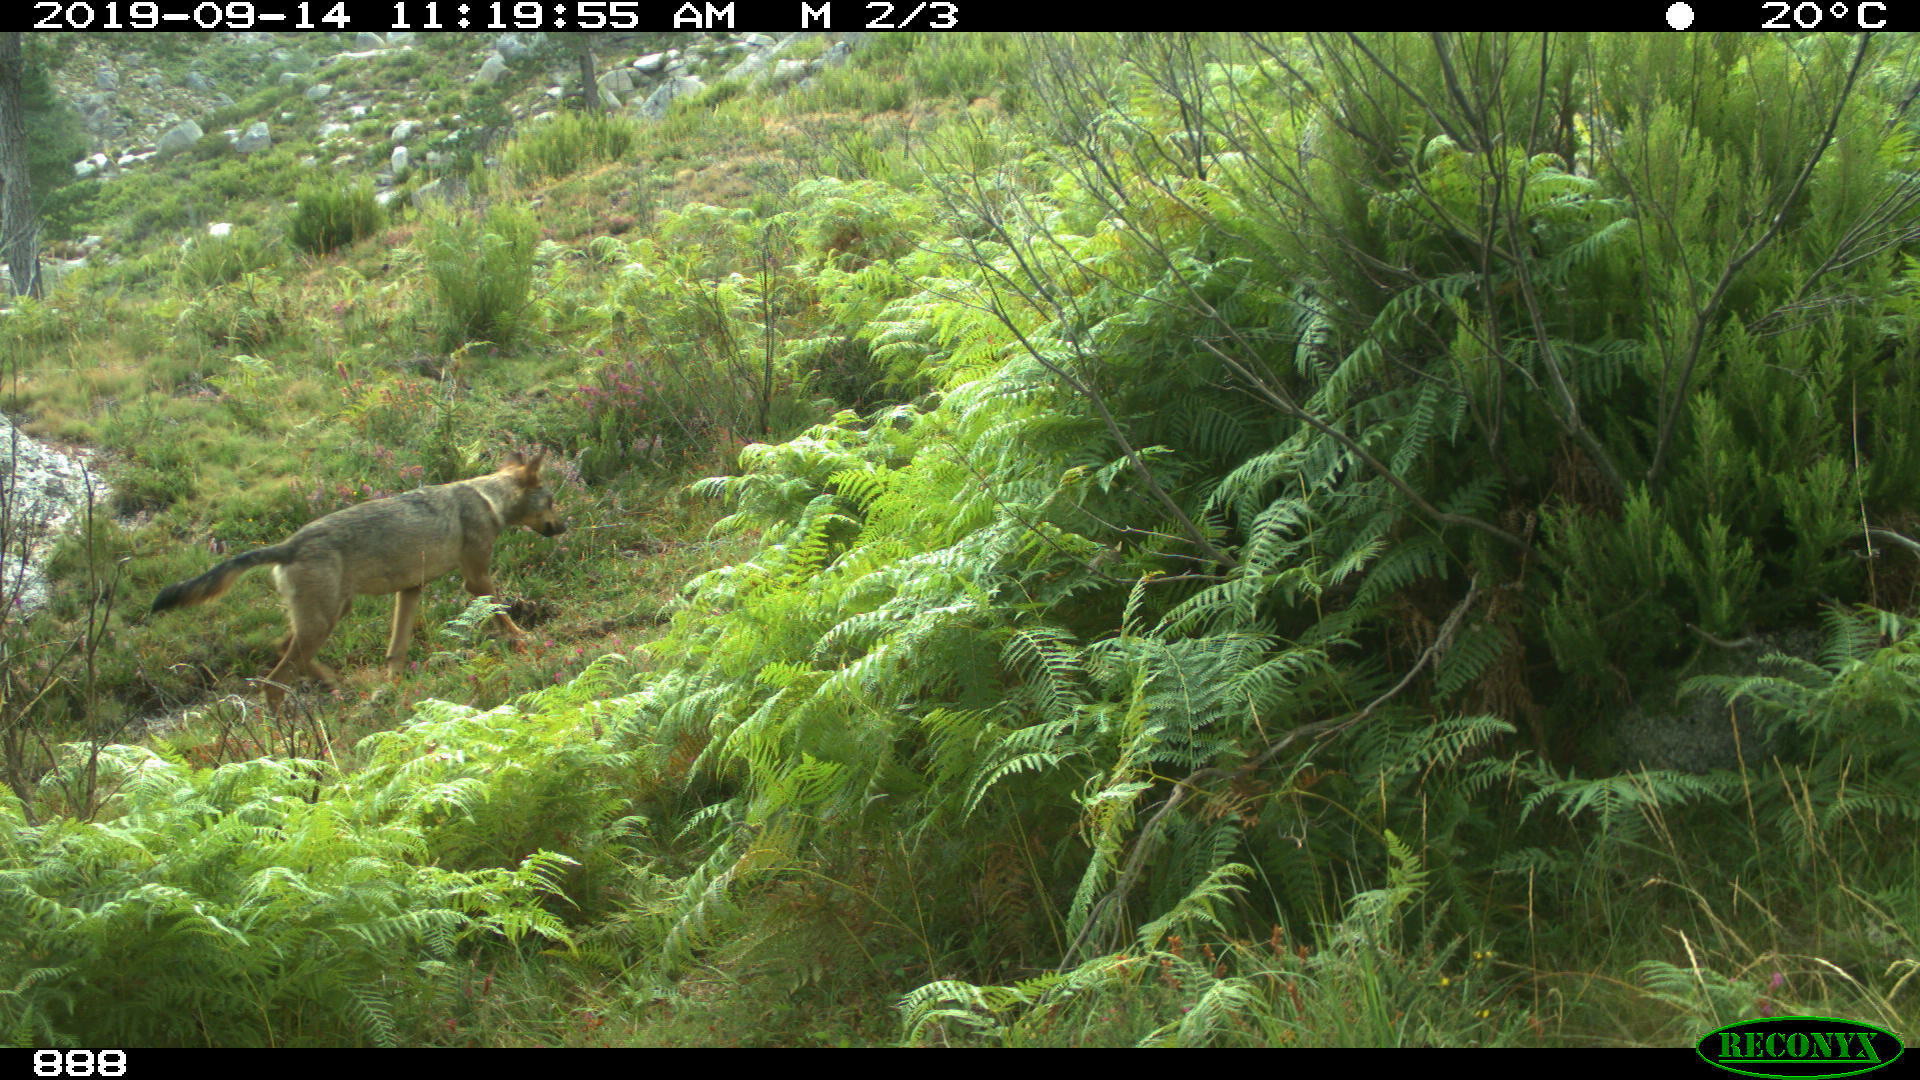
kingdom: Animalia
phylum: Chordata
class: Mammalia
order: Carnivora
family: Canidae
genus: Canis
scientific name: Canis lupus
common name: Gray wolf
